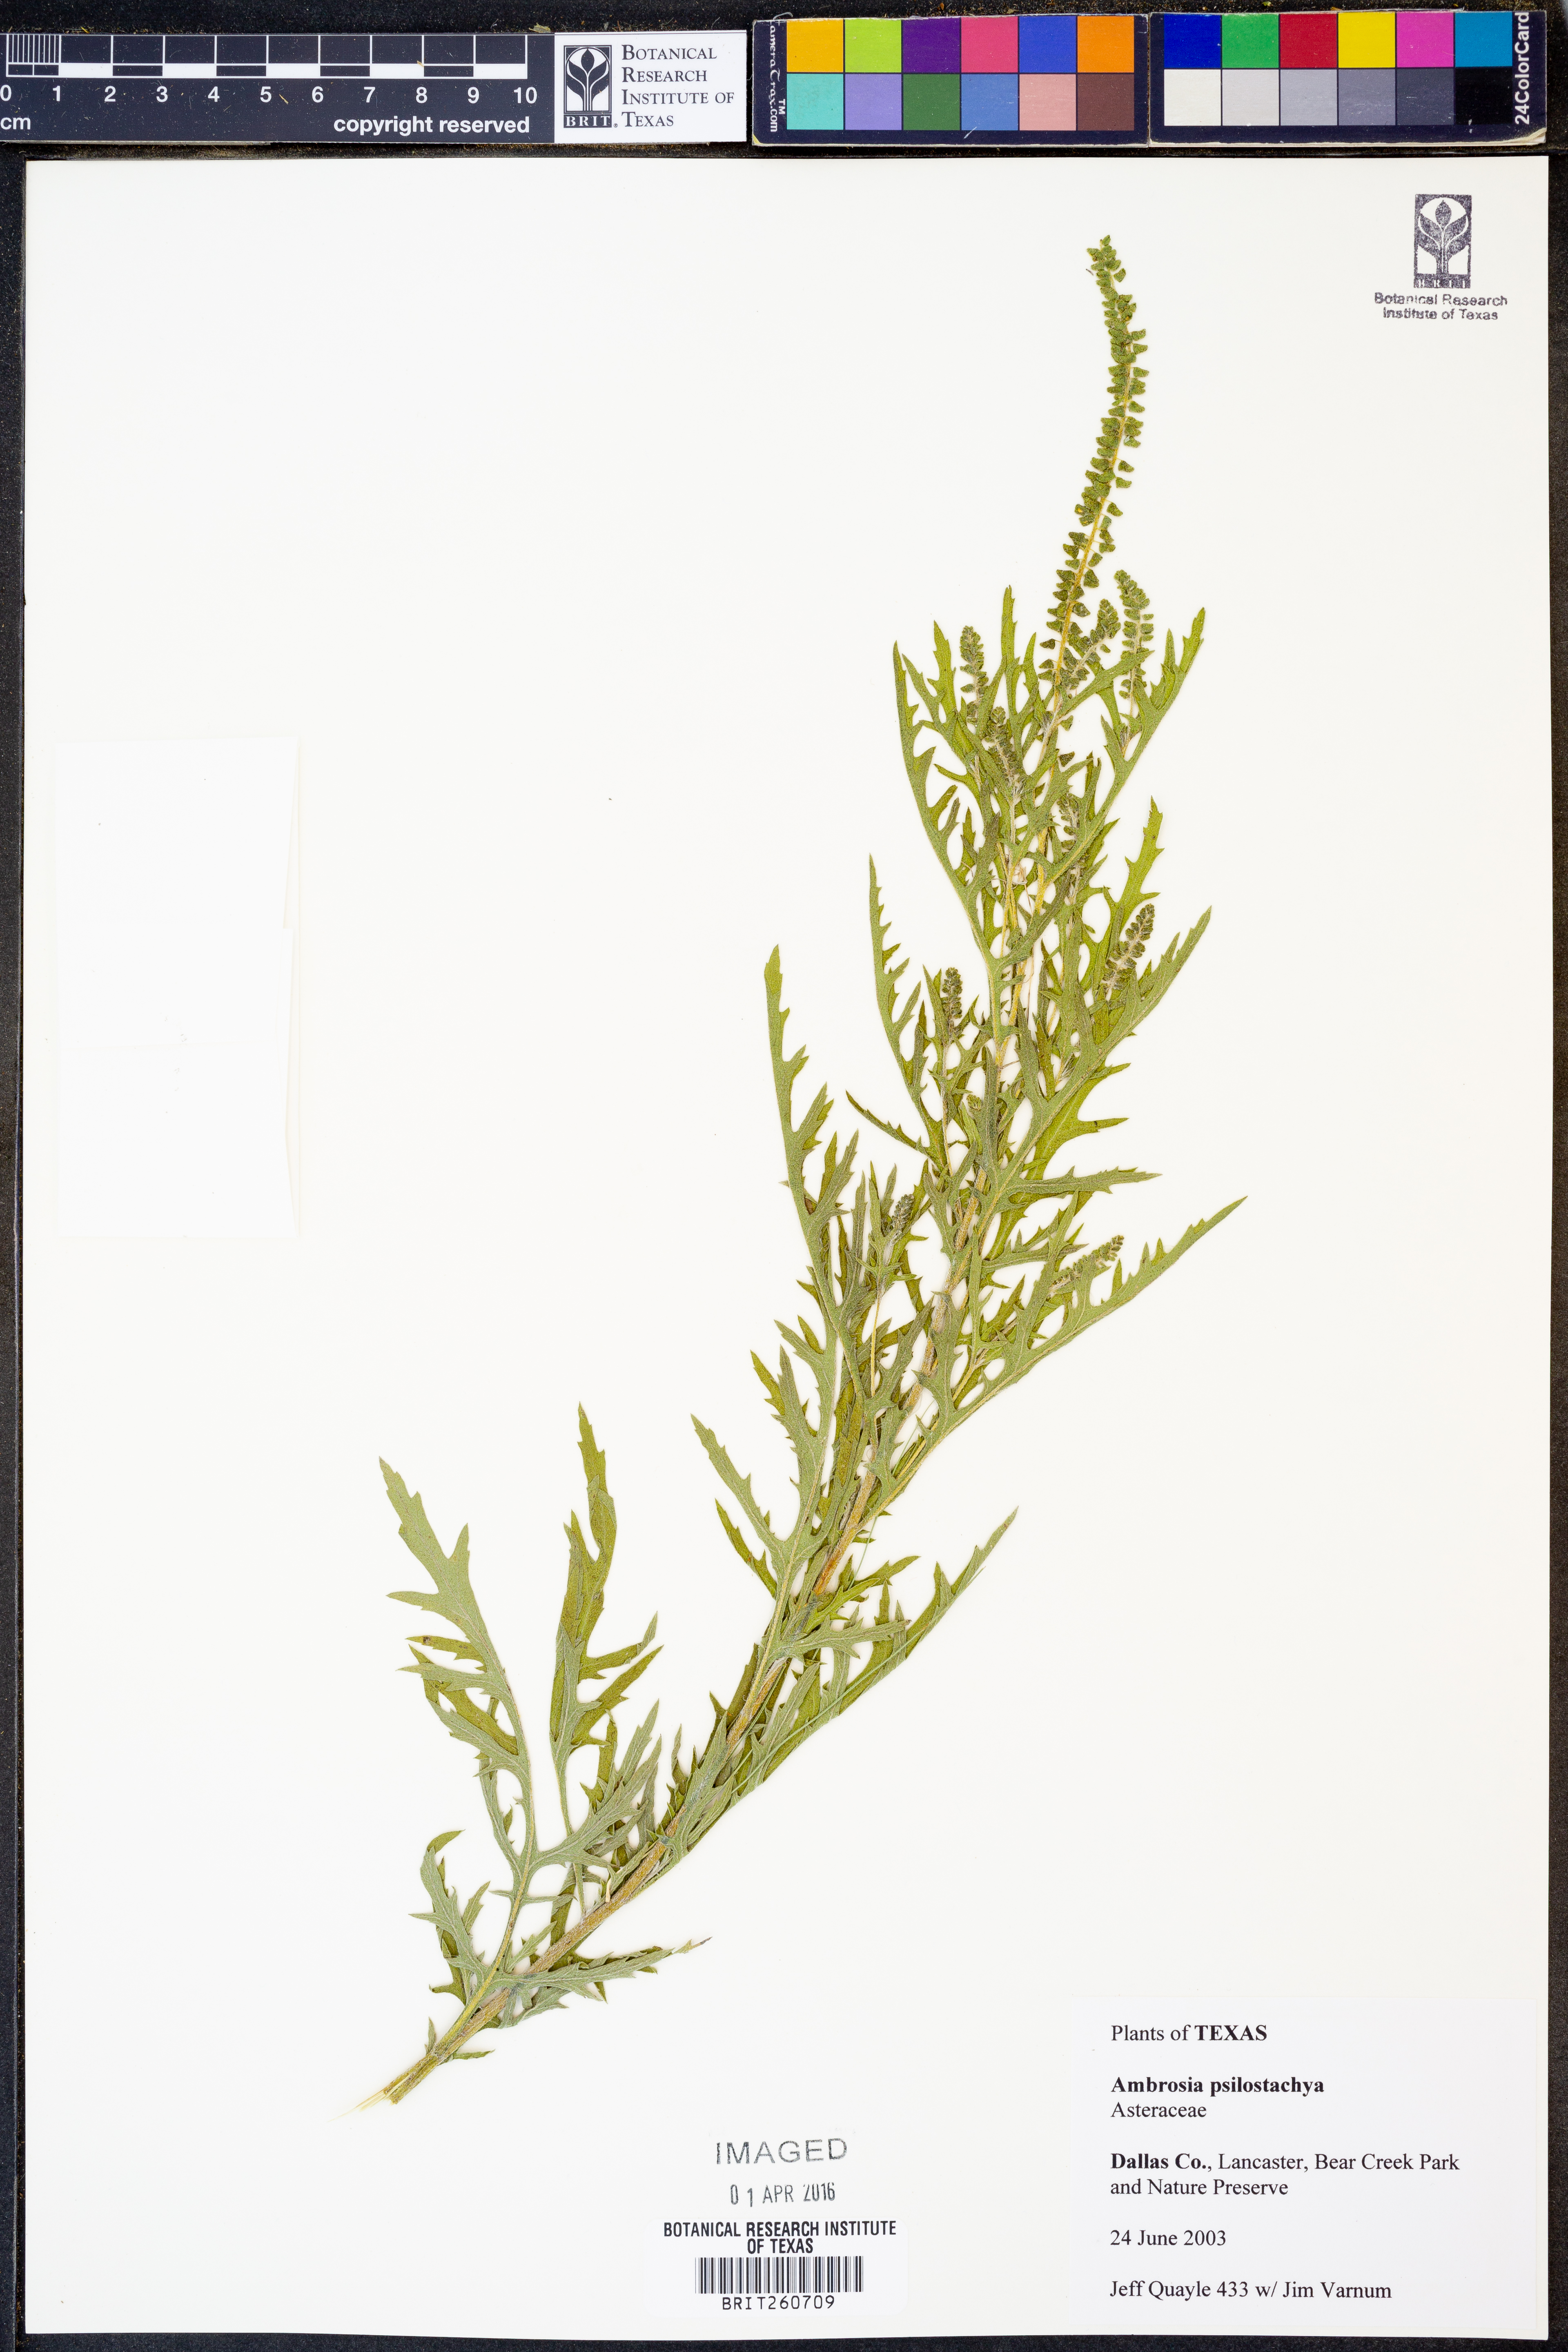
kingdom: Plantae
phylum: Tracheophyta
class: Magnoliopsida
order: Asterales
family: Asteraceae
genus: Ambrosia
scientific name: Ambrosia psilostachya
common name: Perennial ragweed
